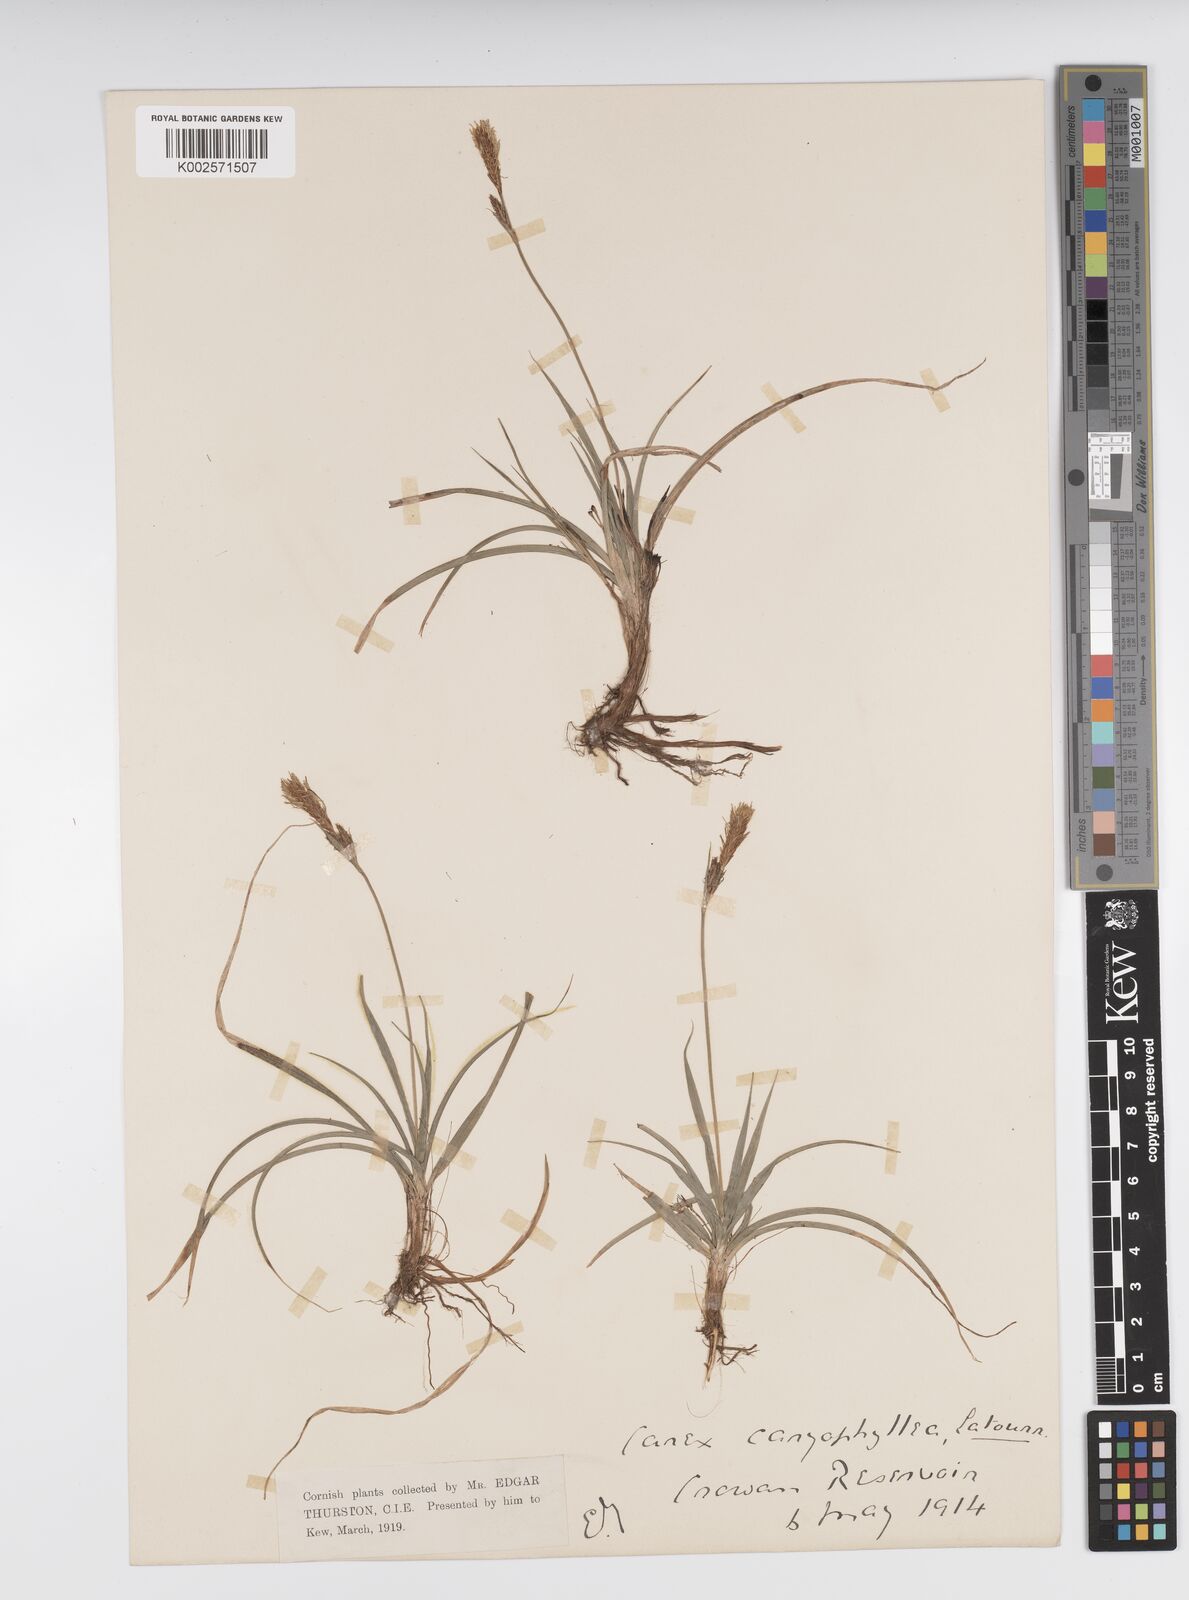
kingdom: Plantae
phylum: Tracheophyta
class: Liliopsida
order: Poales
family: Cyperaceae
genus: Carex
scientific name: Carex caryophyllea
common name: Spring sedge
